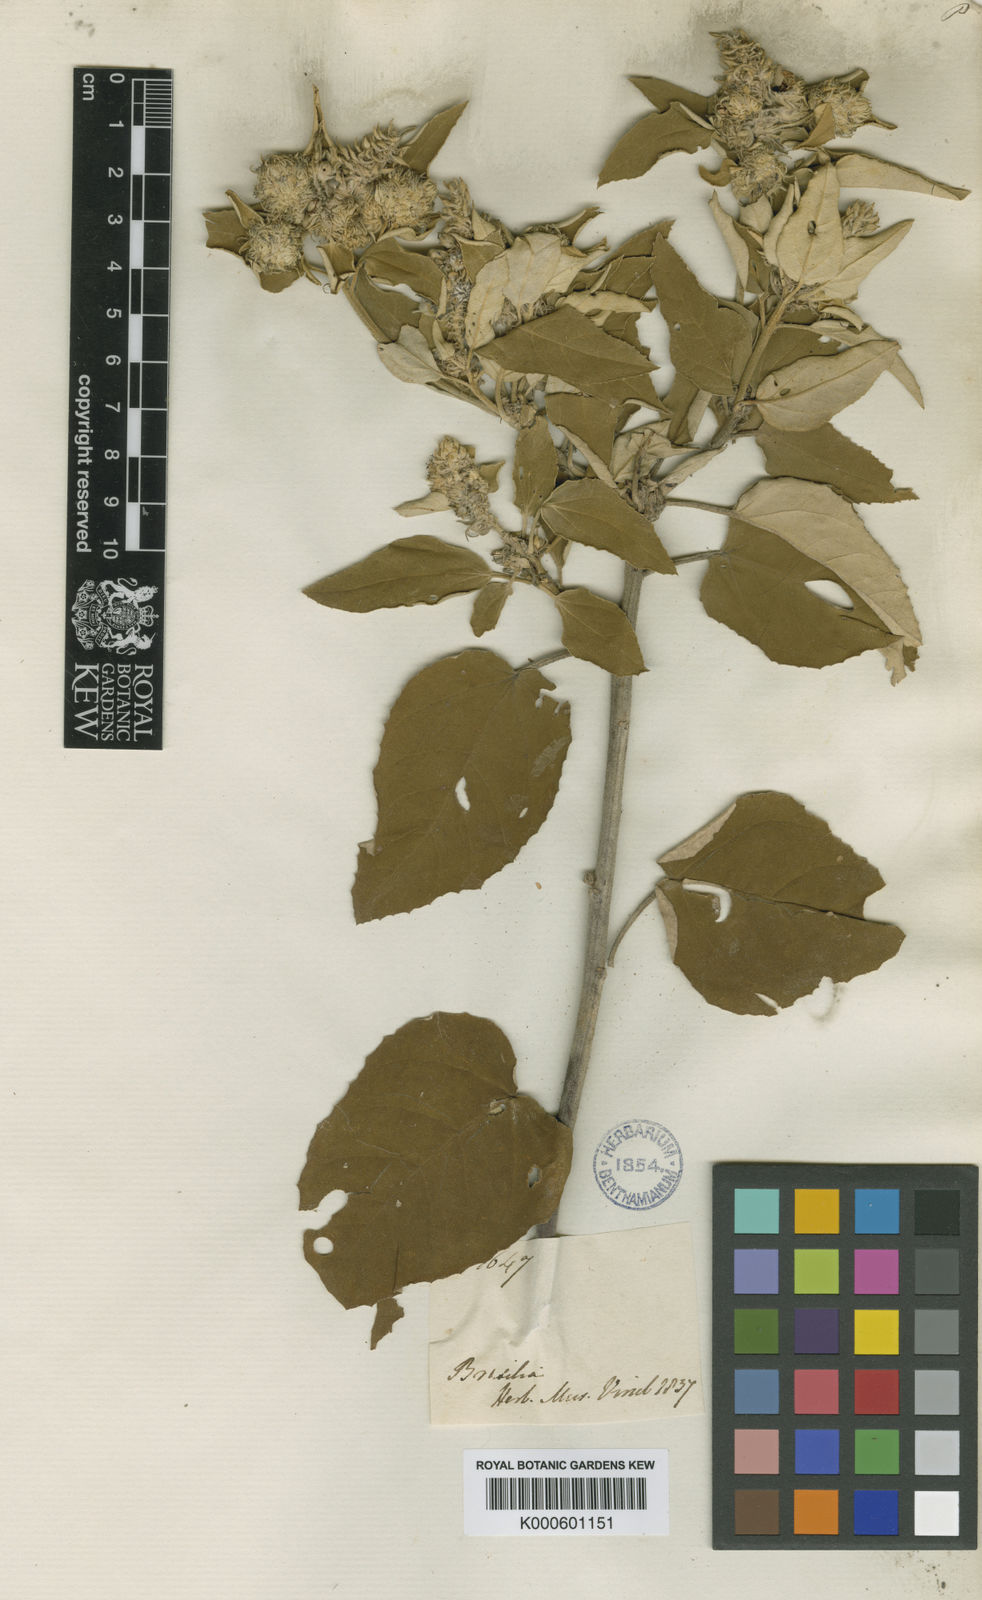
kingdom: Plantae
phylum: Tracheophyta
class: Magnoliopsida
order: Malpighiales
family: Euphorbiaceae
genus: Croton
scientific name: Croton
